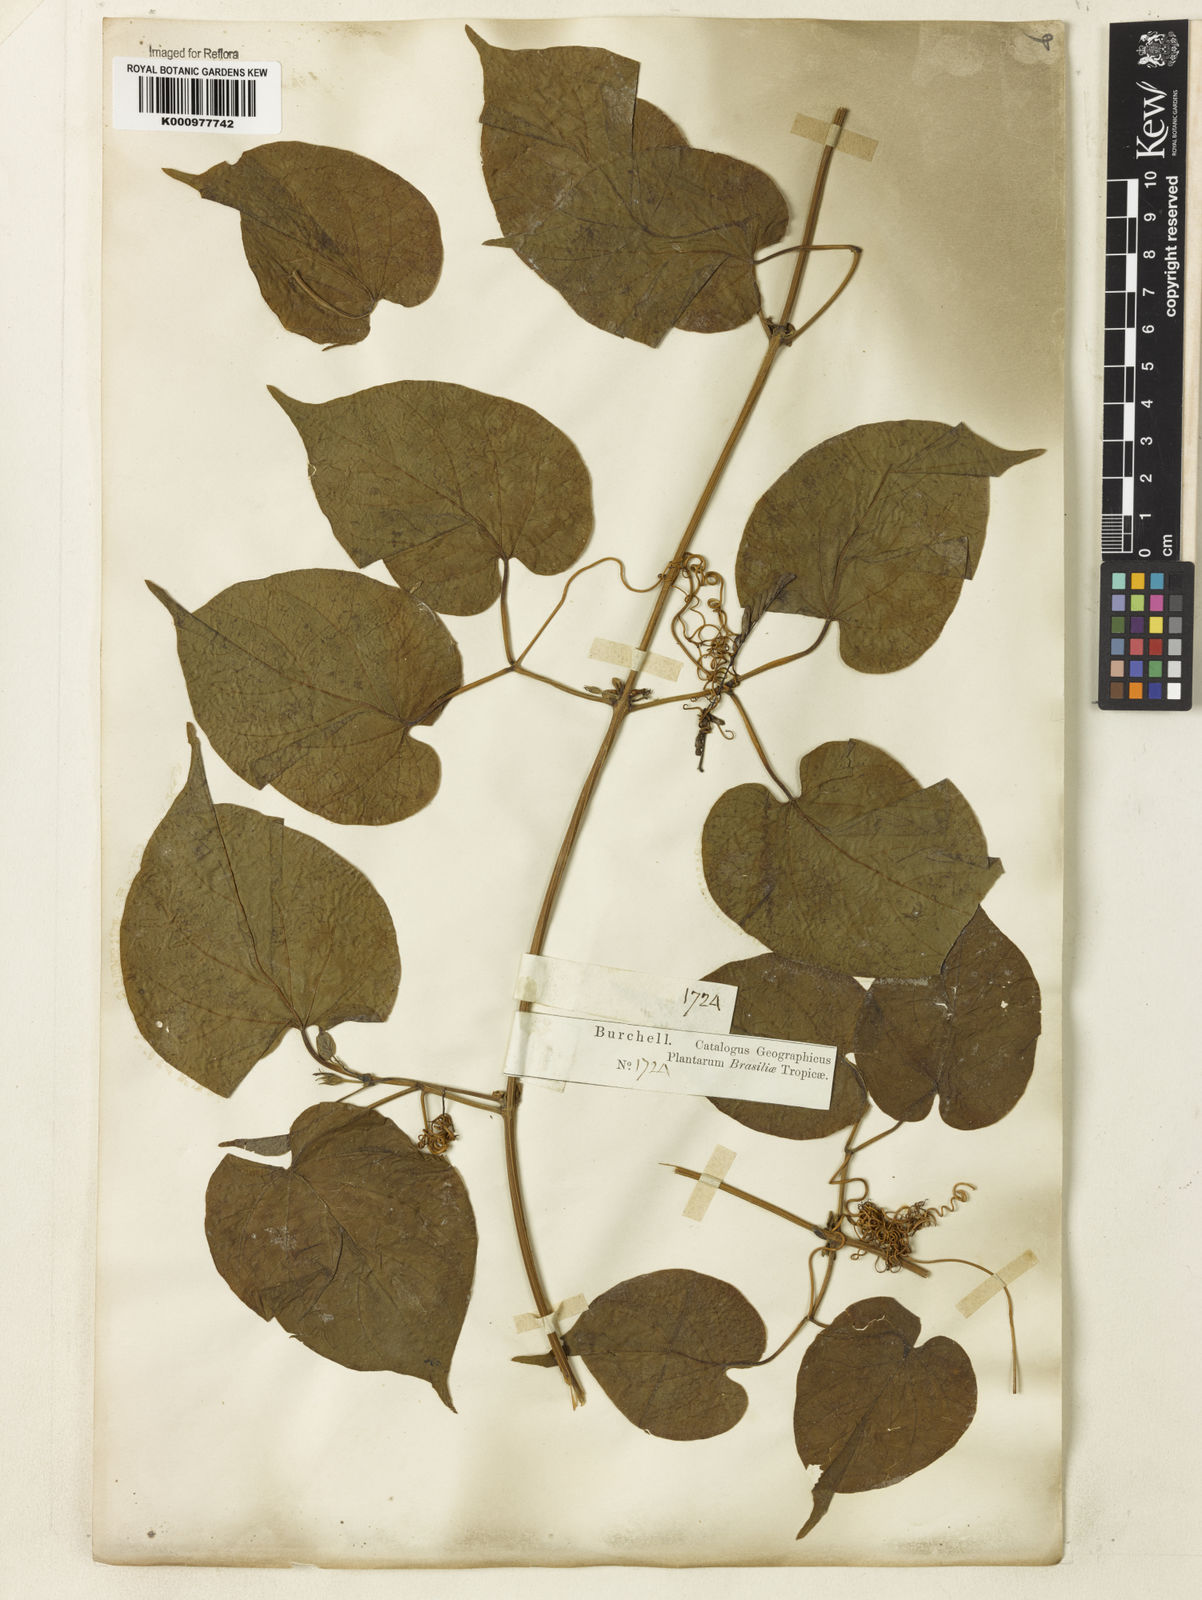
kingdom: Plantae
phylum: Tracheophyta
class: Magnoliopsida
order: Lamiales
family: Bignoniaceae
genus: Amphilophium
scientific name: Amphilophium crucigerum
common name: Monkey comb
